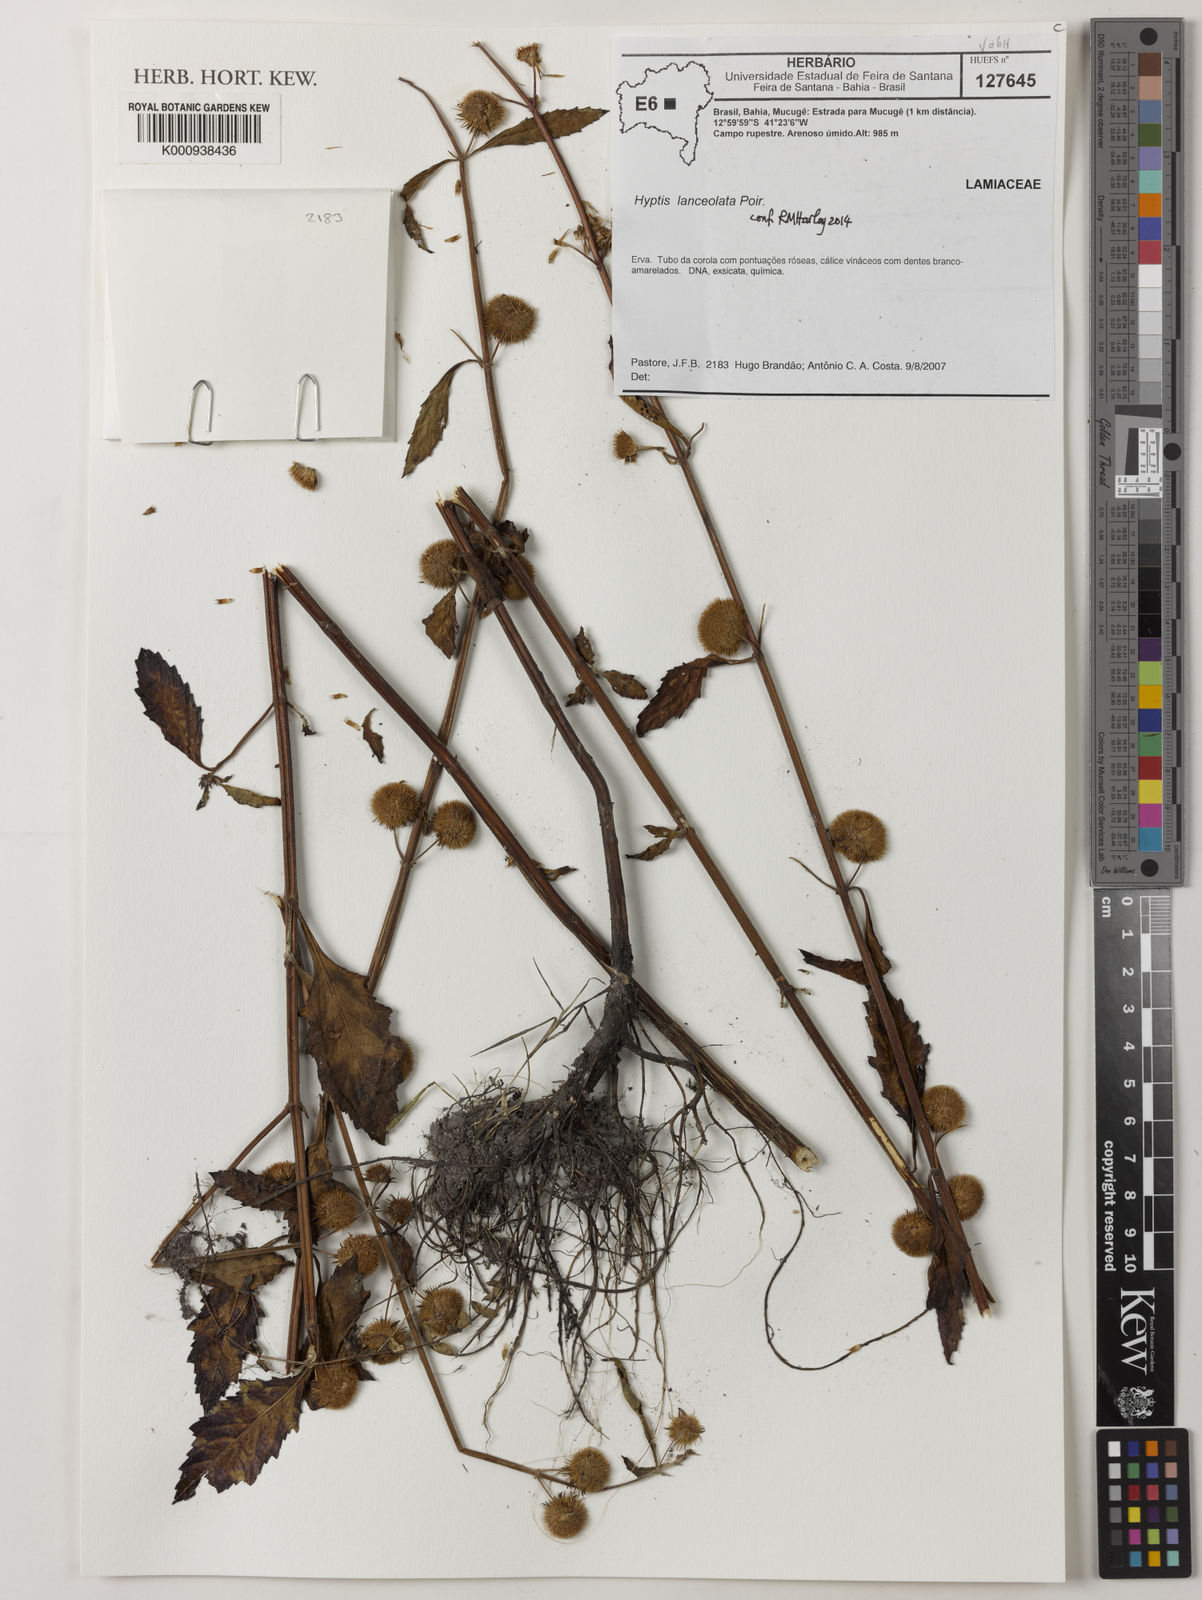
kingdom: Plantae
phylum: Tracheophyta
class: Magnoliopsida
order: Lamiales
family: Lamiaceae
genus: Hyptis
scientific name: Hyptis lanceolata
